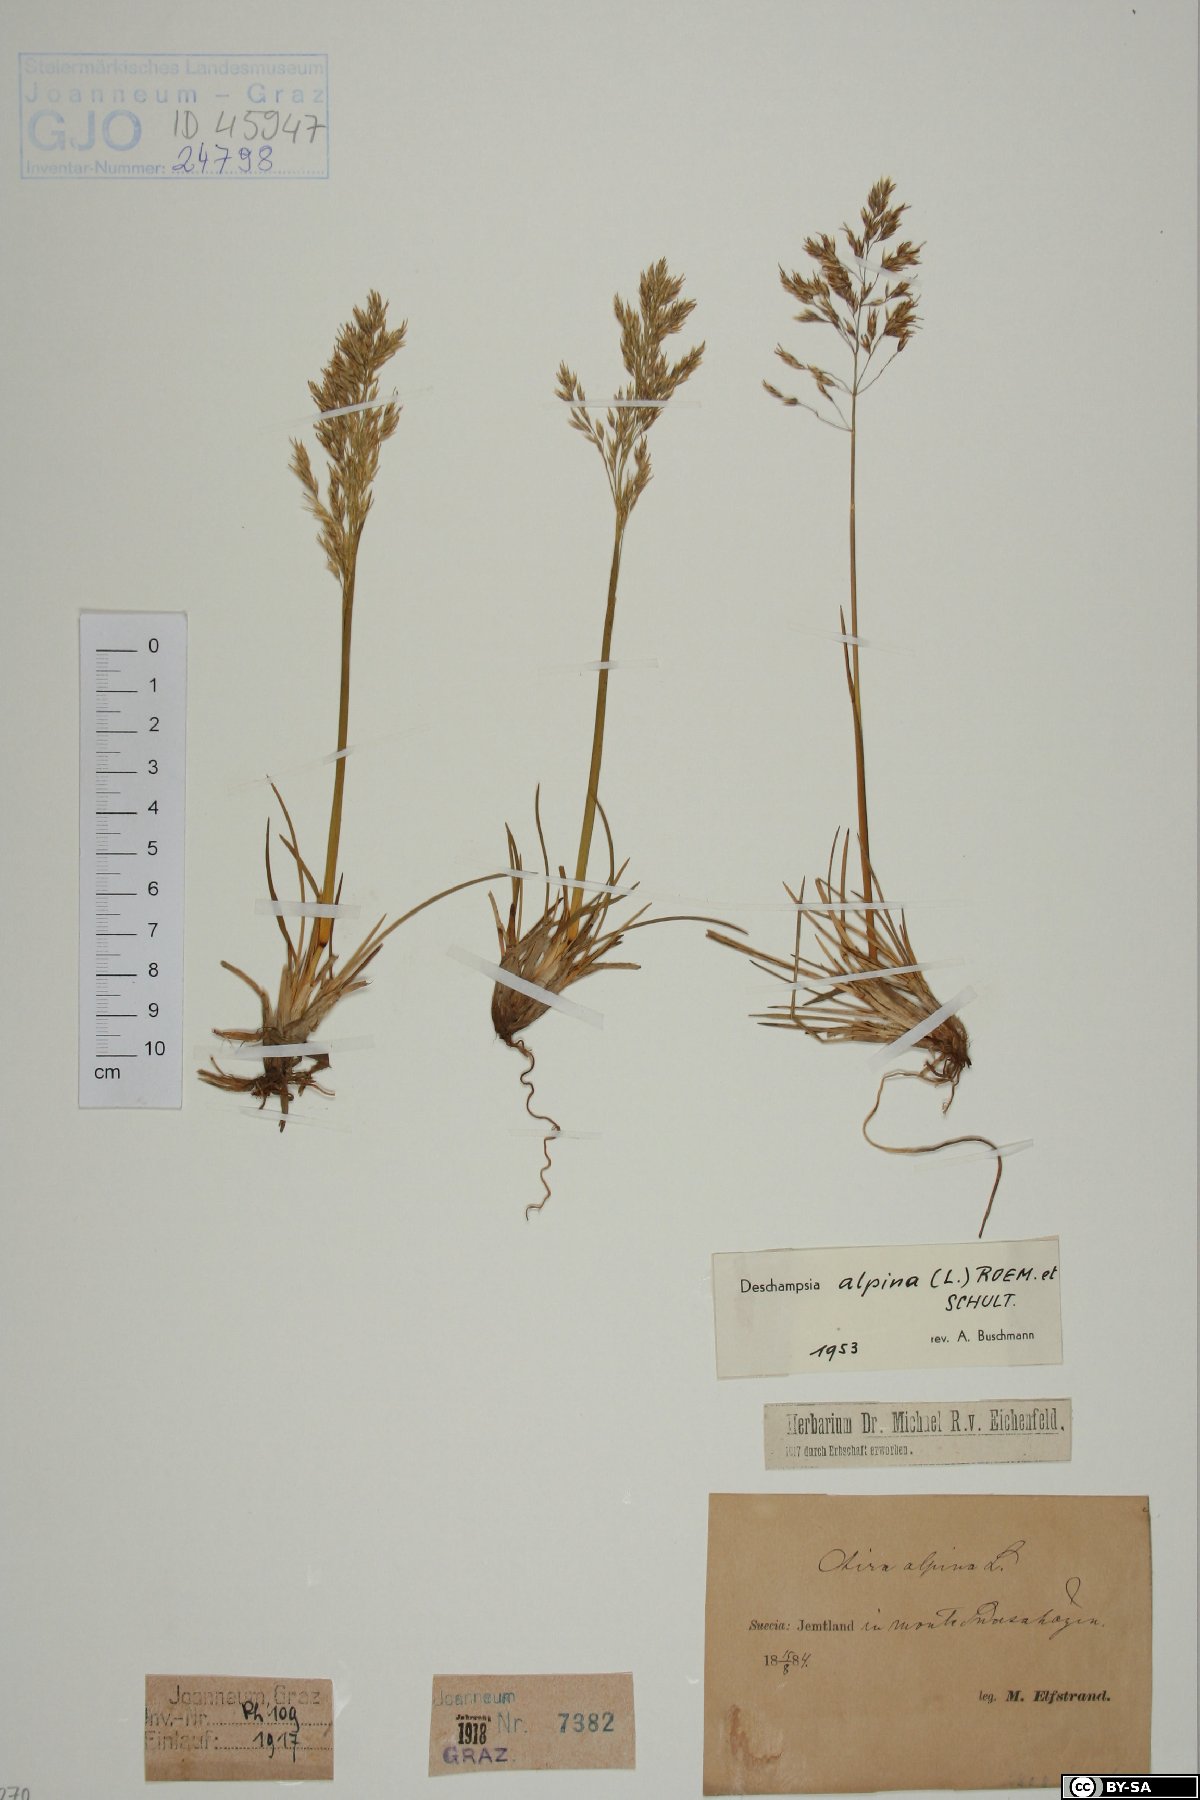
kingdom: Plantae
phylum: Tracheophyta
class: Liliopsida
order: Poales
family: Poaceae
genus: Deschampsia
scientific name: Deschampsia cespitosa
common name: Tufted hair-grass
